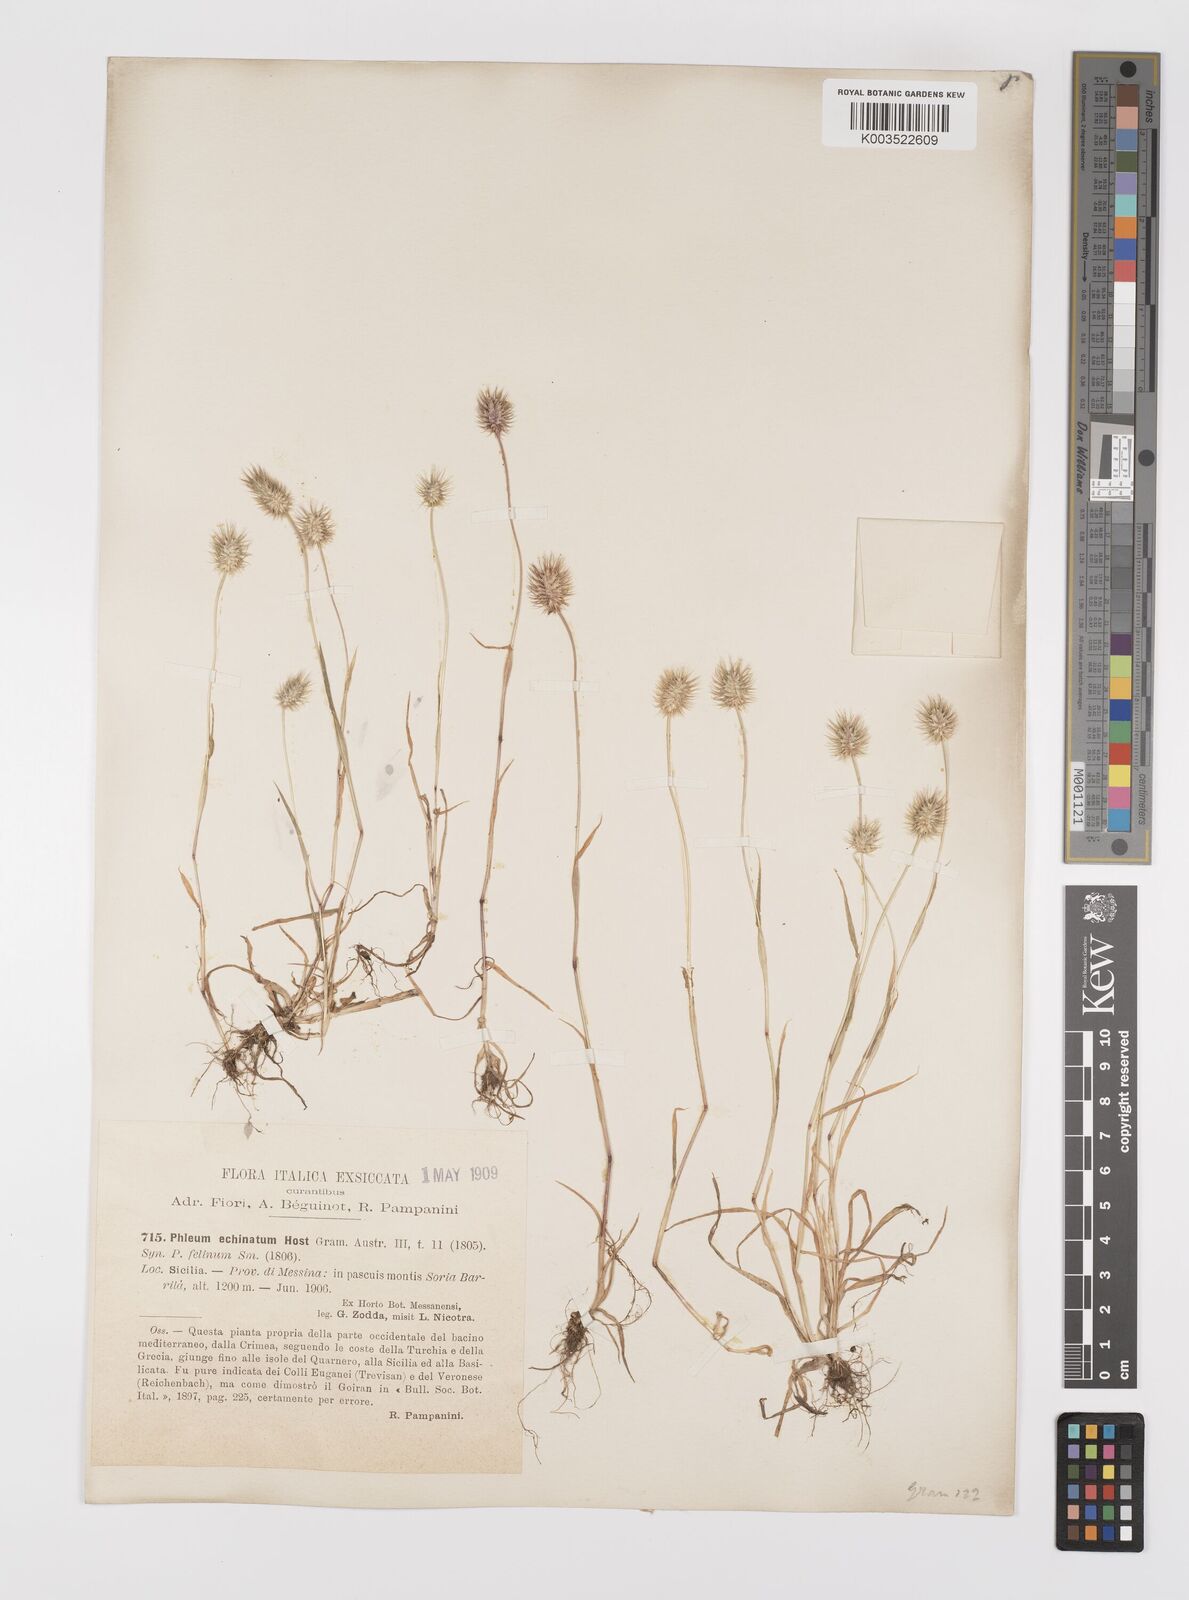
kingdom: Plantae
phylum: Tracheophyta
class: Liliopsida
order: Poales
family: Poaceae
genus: Phleum
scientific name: Phleum echinatum
